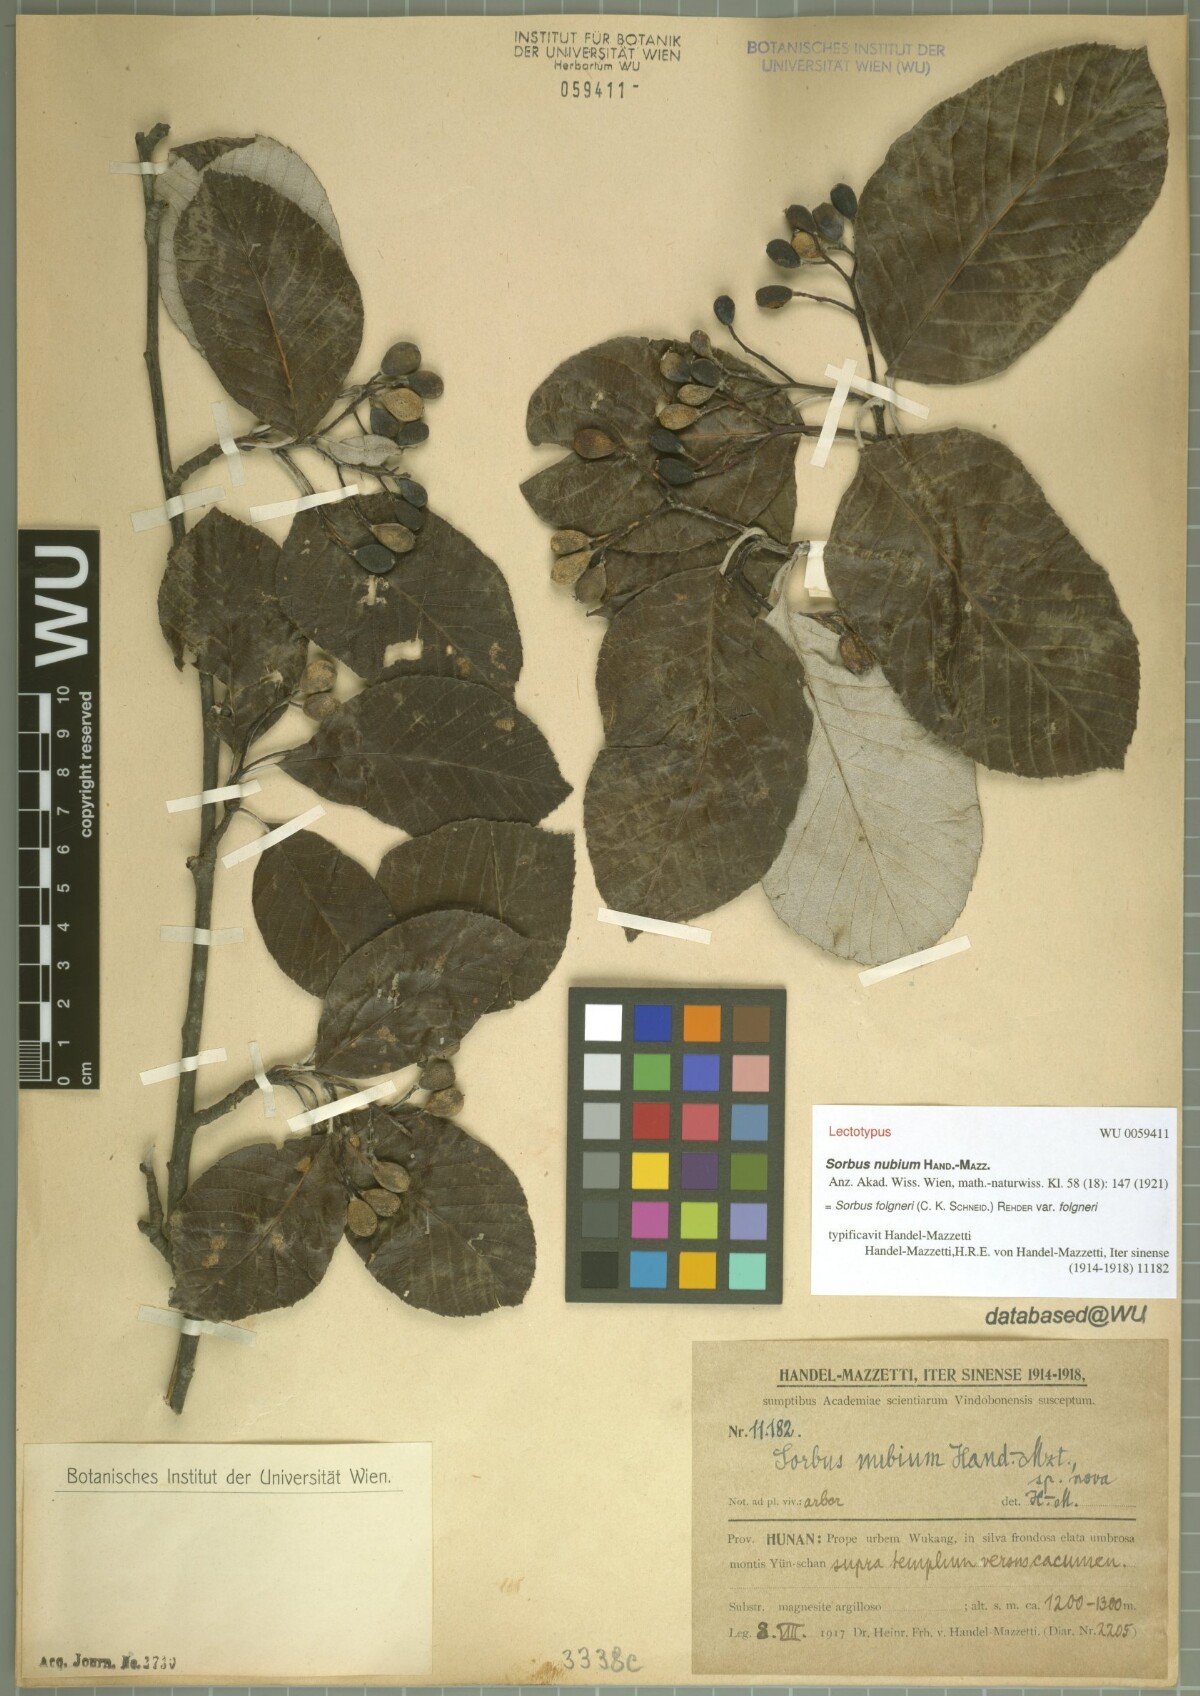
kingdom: Plantae
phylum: Tracheophyta
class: Magnoliopsida
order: Rosales
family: Rosaceae
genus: Sorbus
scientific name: Sorbus nubium
